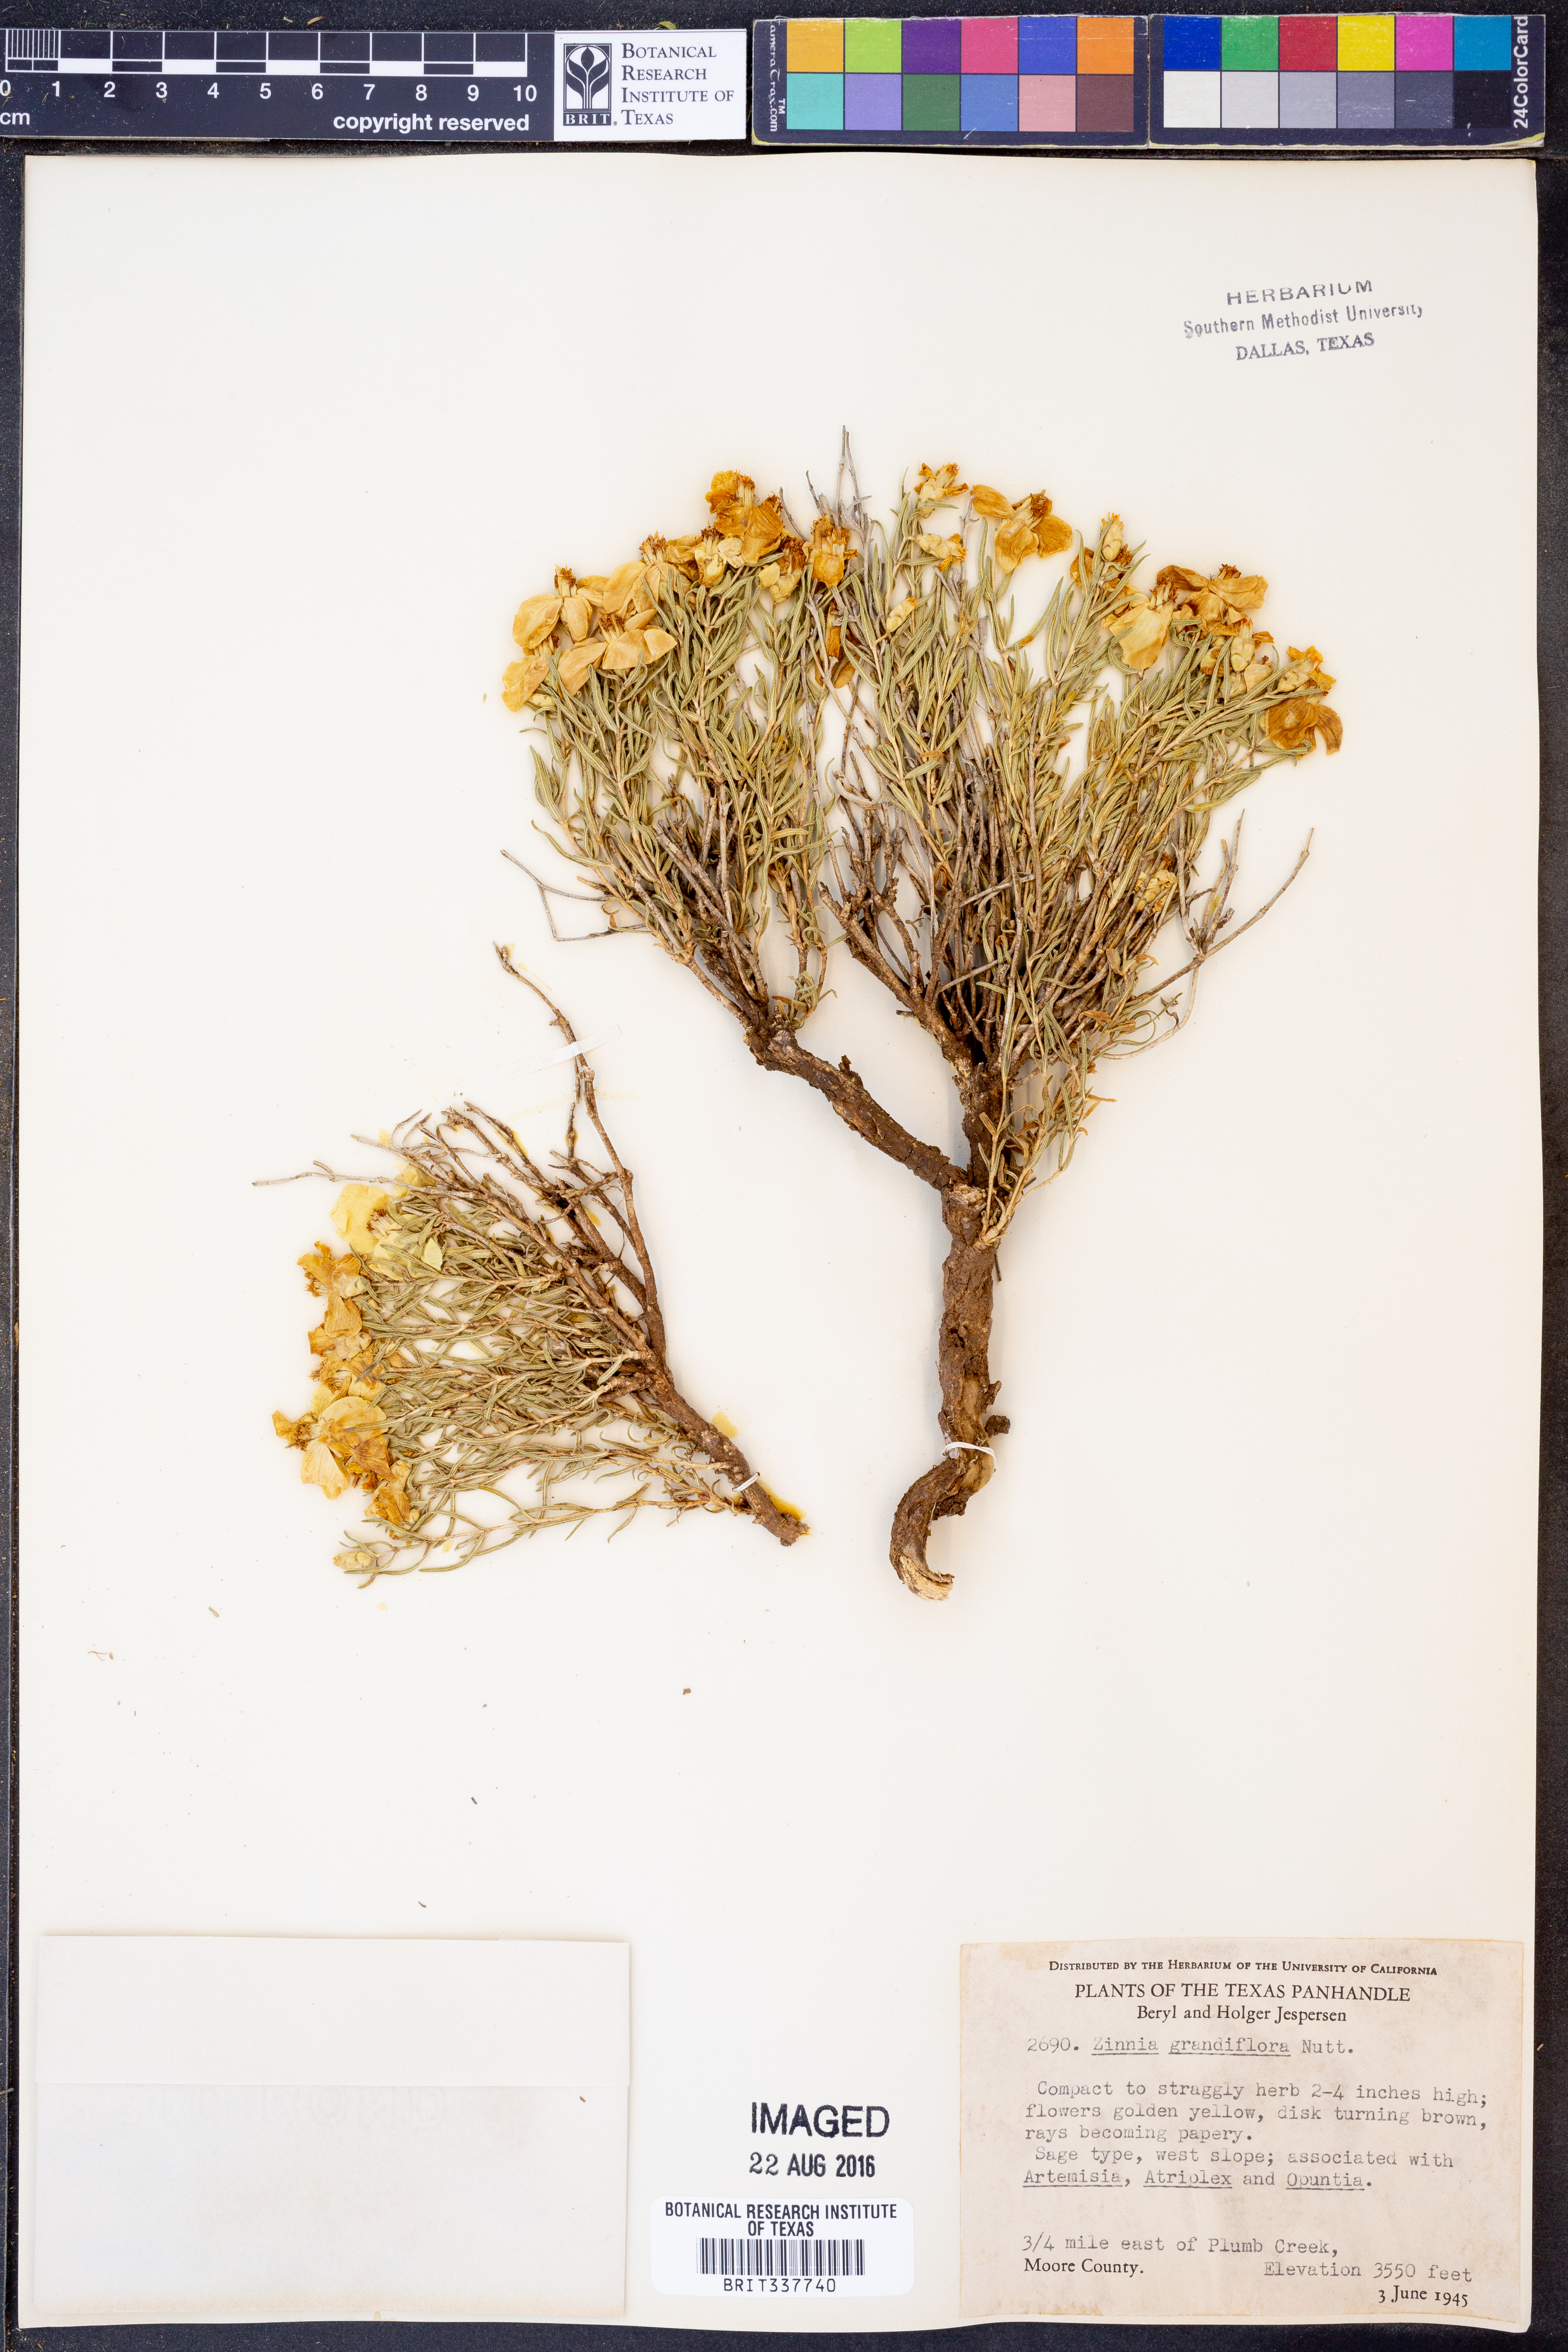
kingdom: Plantae
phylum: Tracheophyta
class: Magnoliopsida
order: Asterales
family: Asteraceae
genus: Zinnia
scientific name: Zinnia grandiflora
